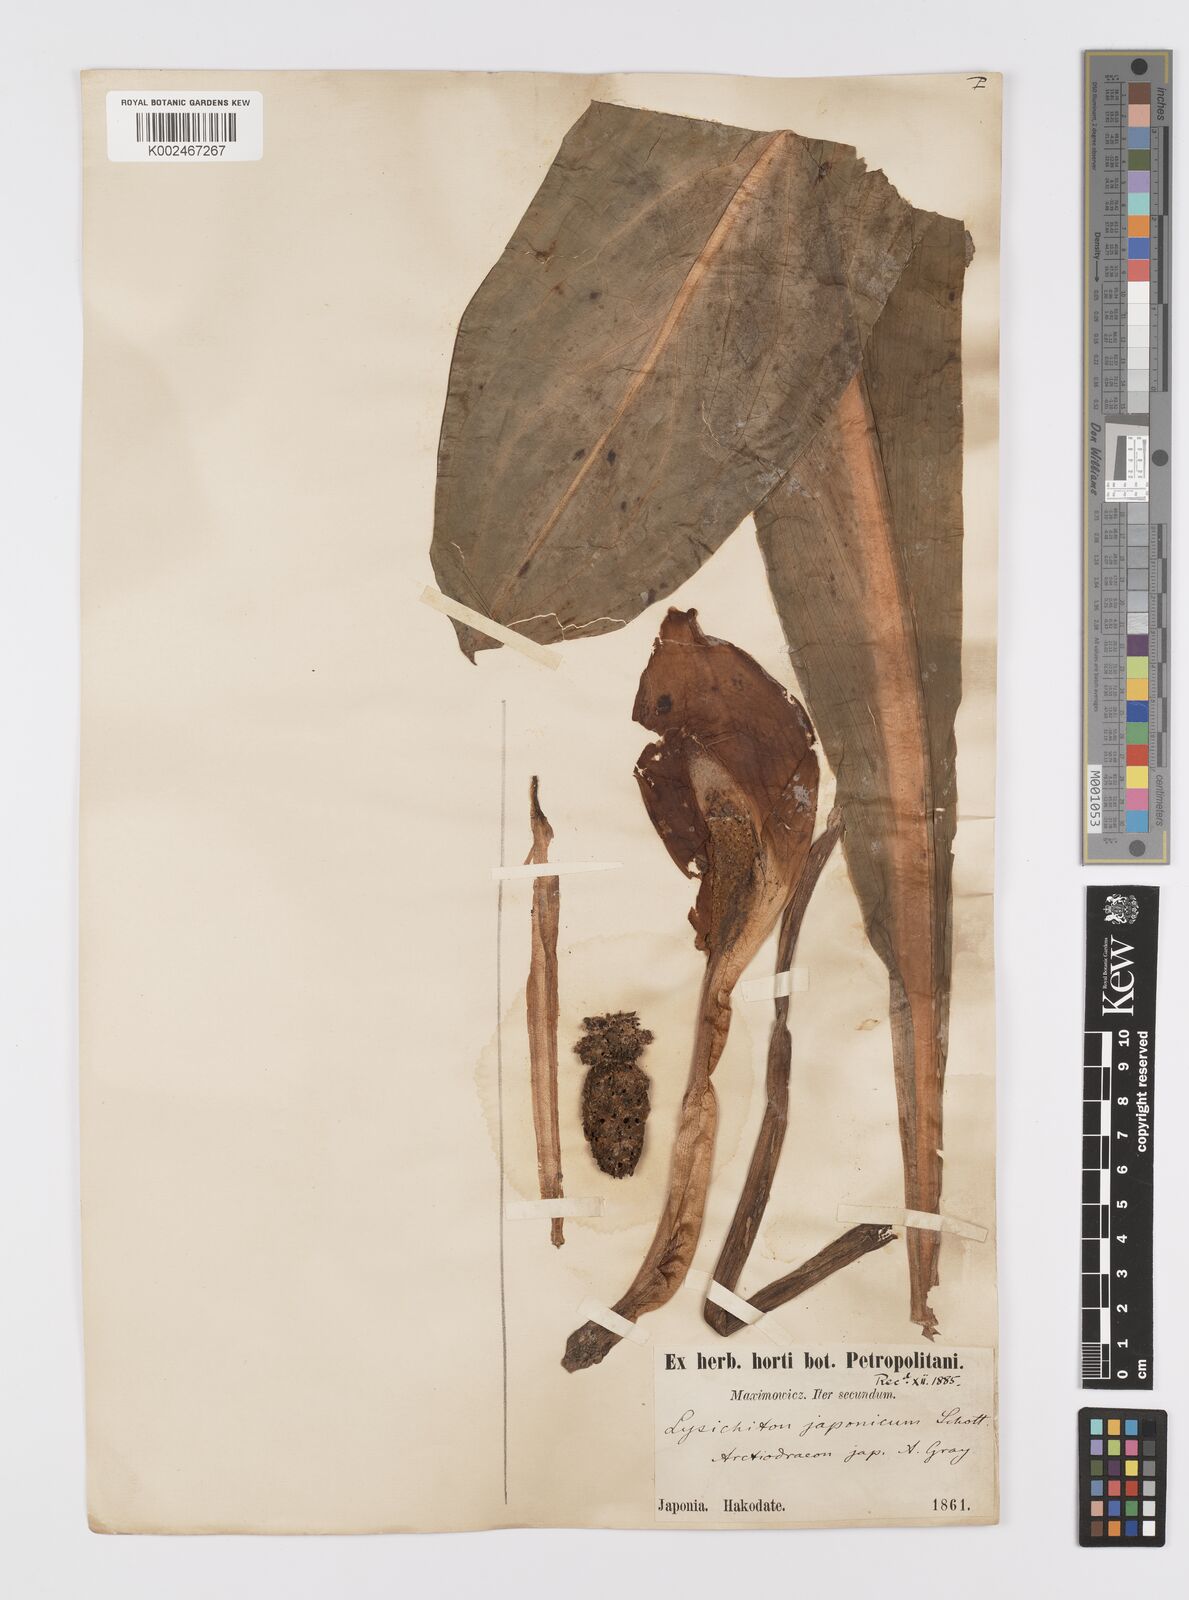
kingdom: Plantae
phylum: Tracheophyta
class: Liliopsida
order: Alismatales
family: Araceae
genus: Lysichiton
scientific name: Lysichiton camtschatcensis
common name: Asian skunk-cabbage
